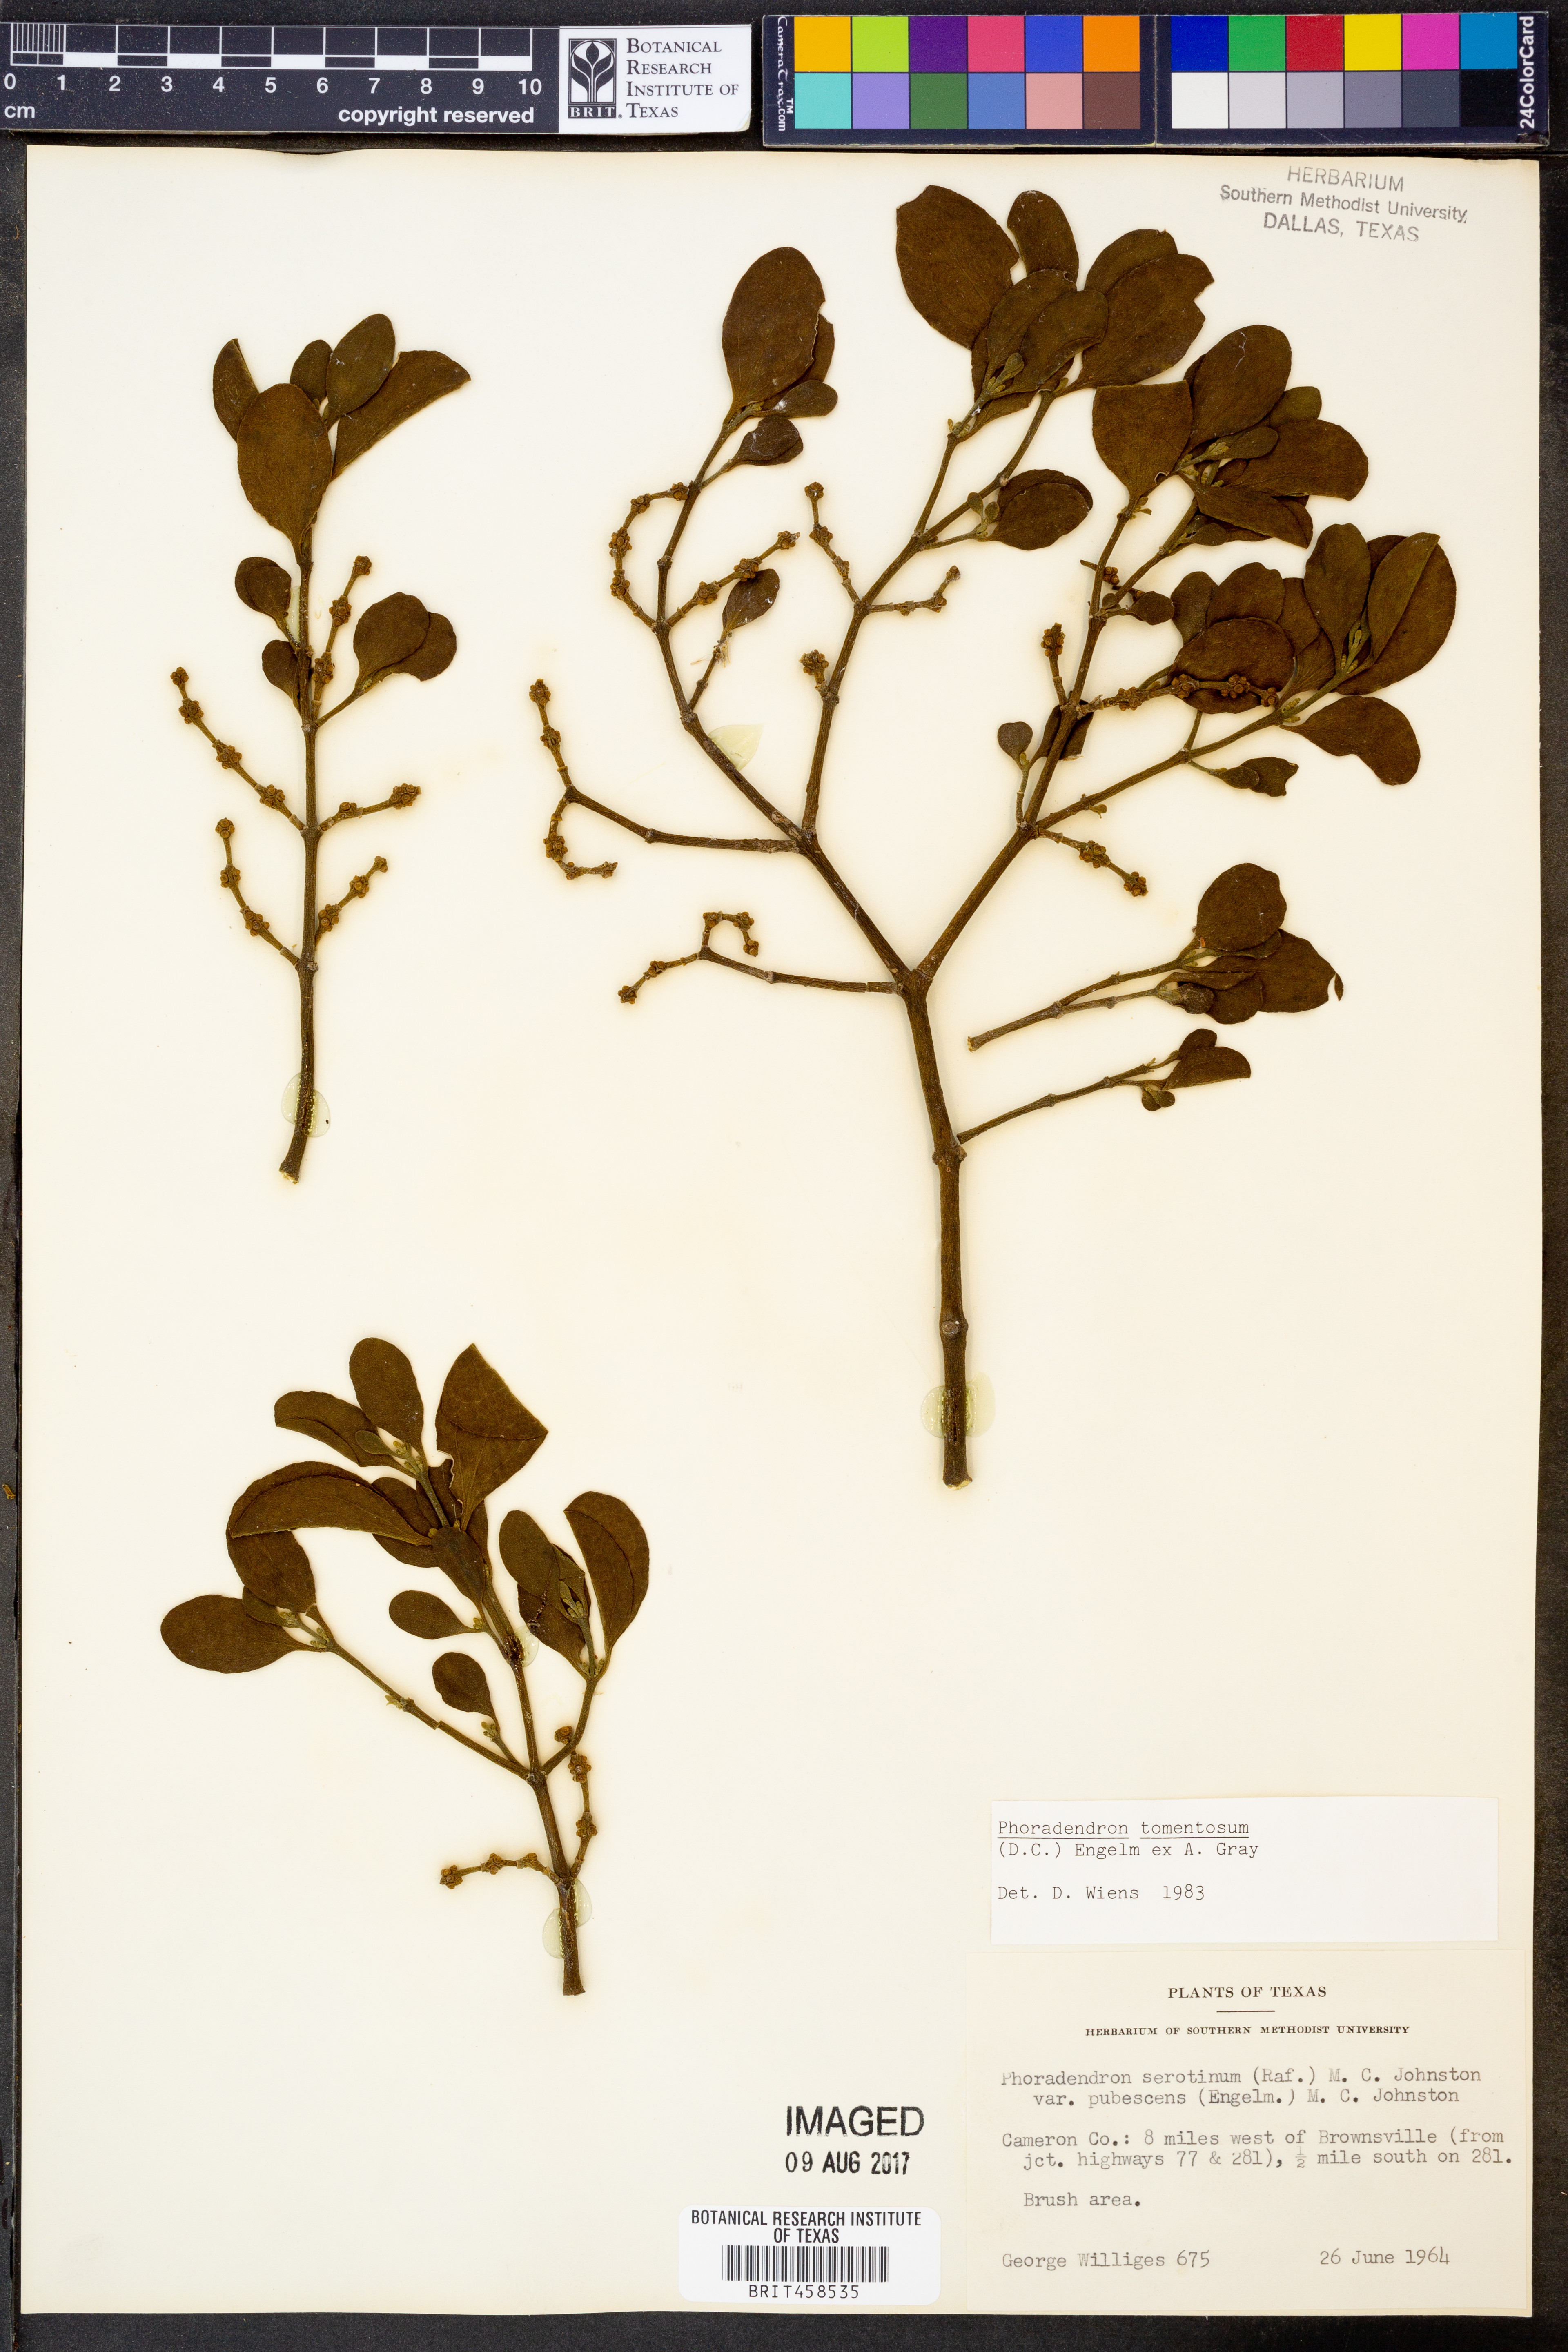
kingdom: Plantae
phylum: Tracheophyta
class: Magnoliopsida
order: Santalales
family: Viscaceae
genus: Phoradendron
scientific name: Phoradendron leucarpum
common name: Pacific mistletoe
